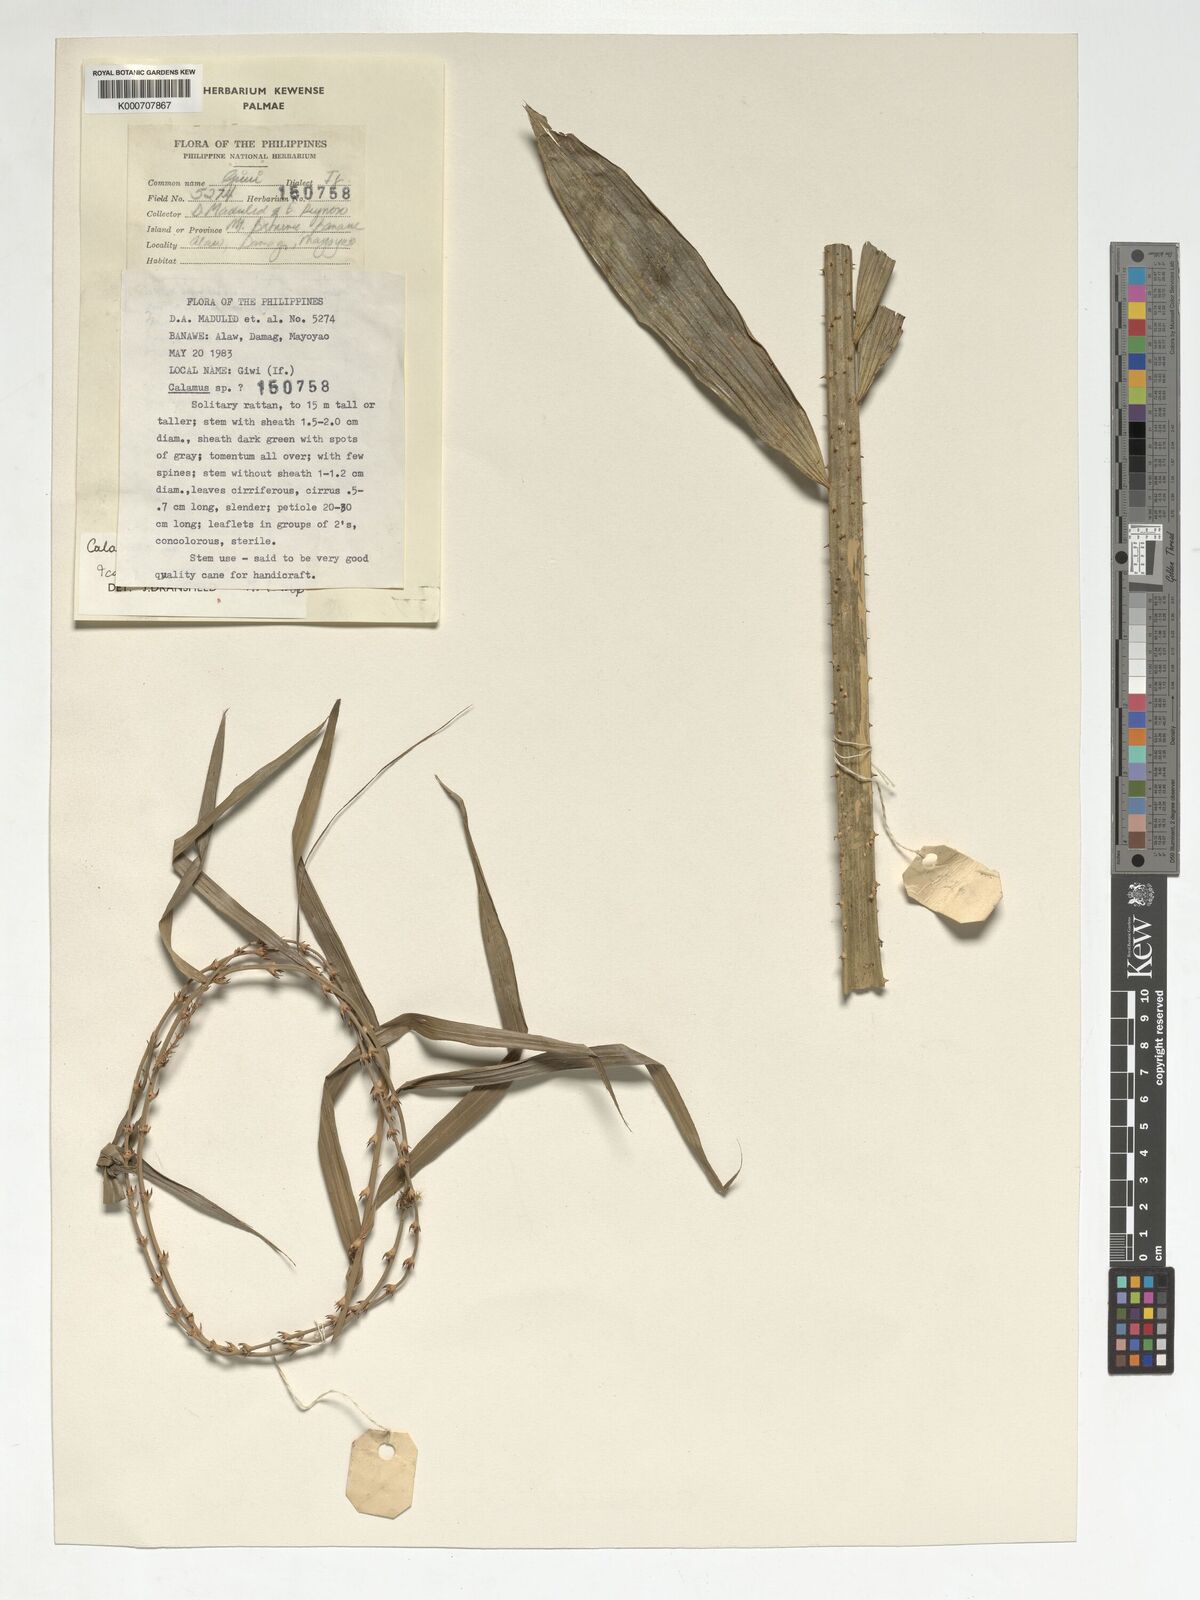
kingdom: Plantae
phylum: Tracheophyta
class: Liliopsida
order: Arecales
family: Arecaceae
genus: Calamus
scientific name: Calamus manillensis
